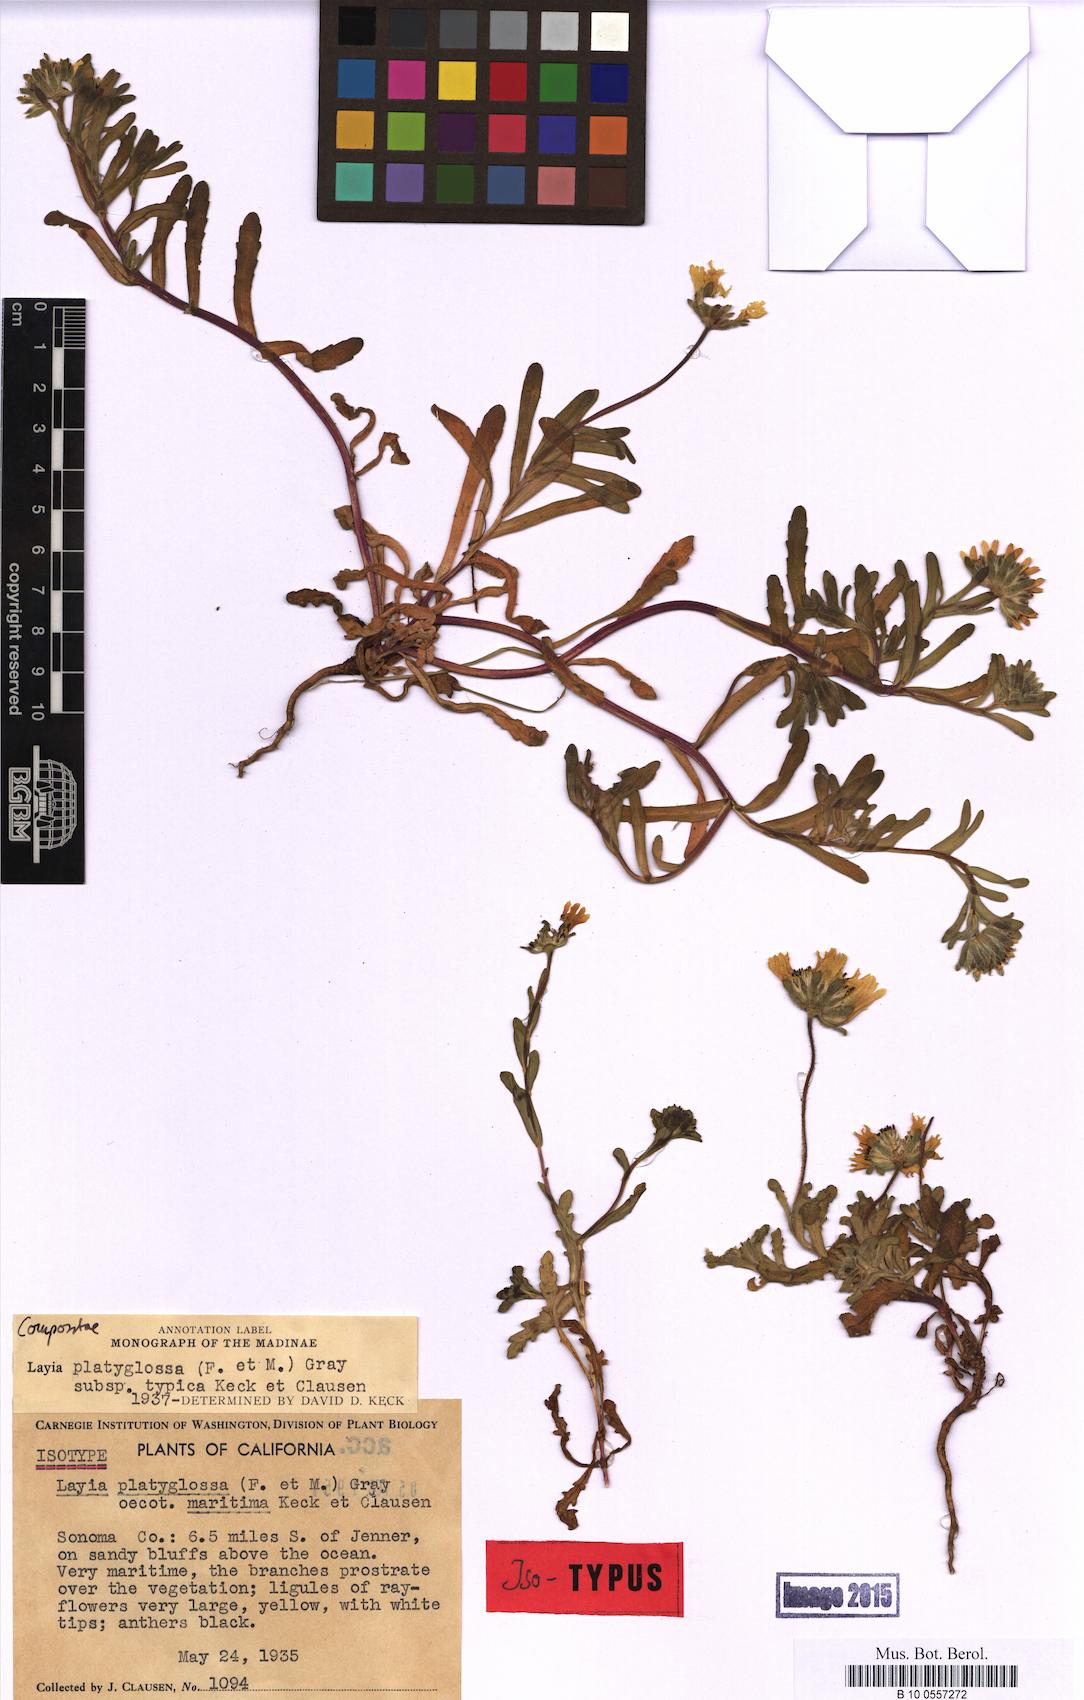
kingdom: Plantae
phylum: Tracheophyta
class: Magnoliopsida
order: Asterales
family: Asteraceae
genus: Layia
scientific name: Layia platyglossa
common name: Tidy-tips
